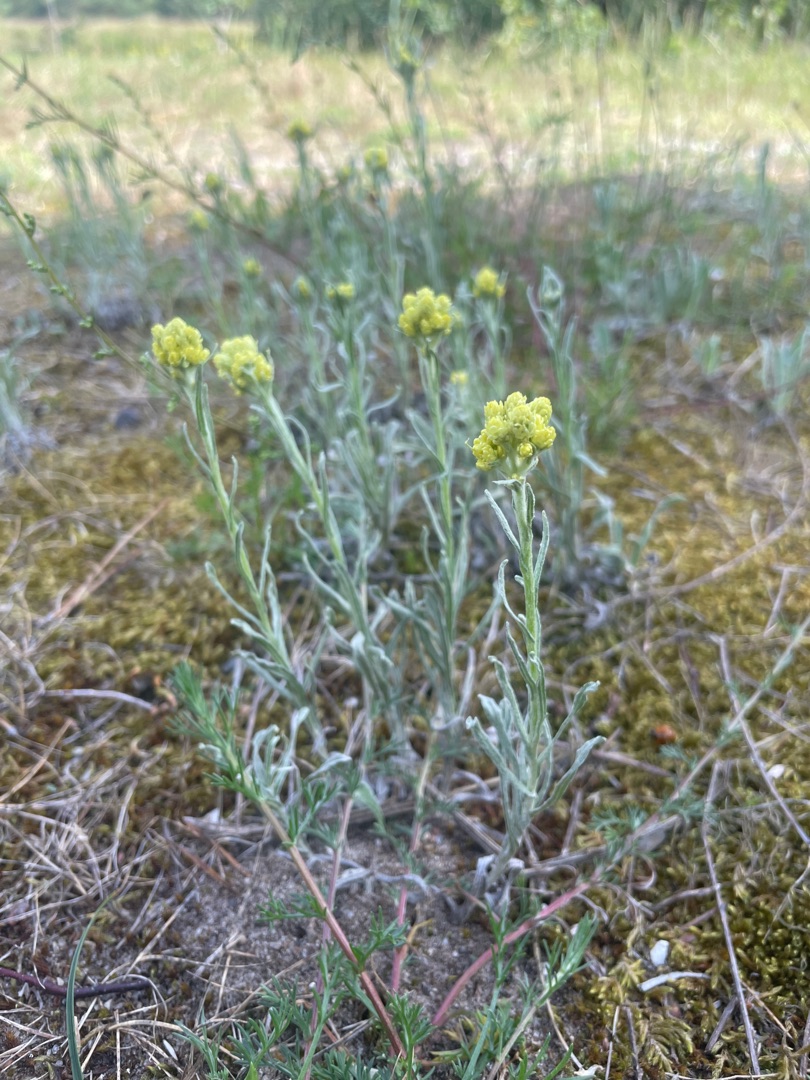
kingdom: Plantae
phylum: Tracheophyta
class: Magnoliopsida
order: Asterales
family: Asteraceae
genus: Helichrysum
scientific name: Helichrysum arenarium
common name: Gul evighedsblomst
